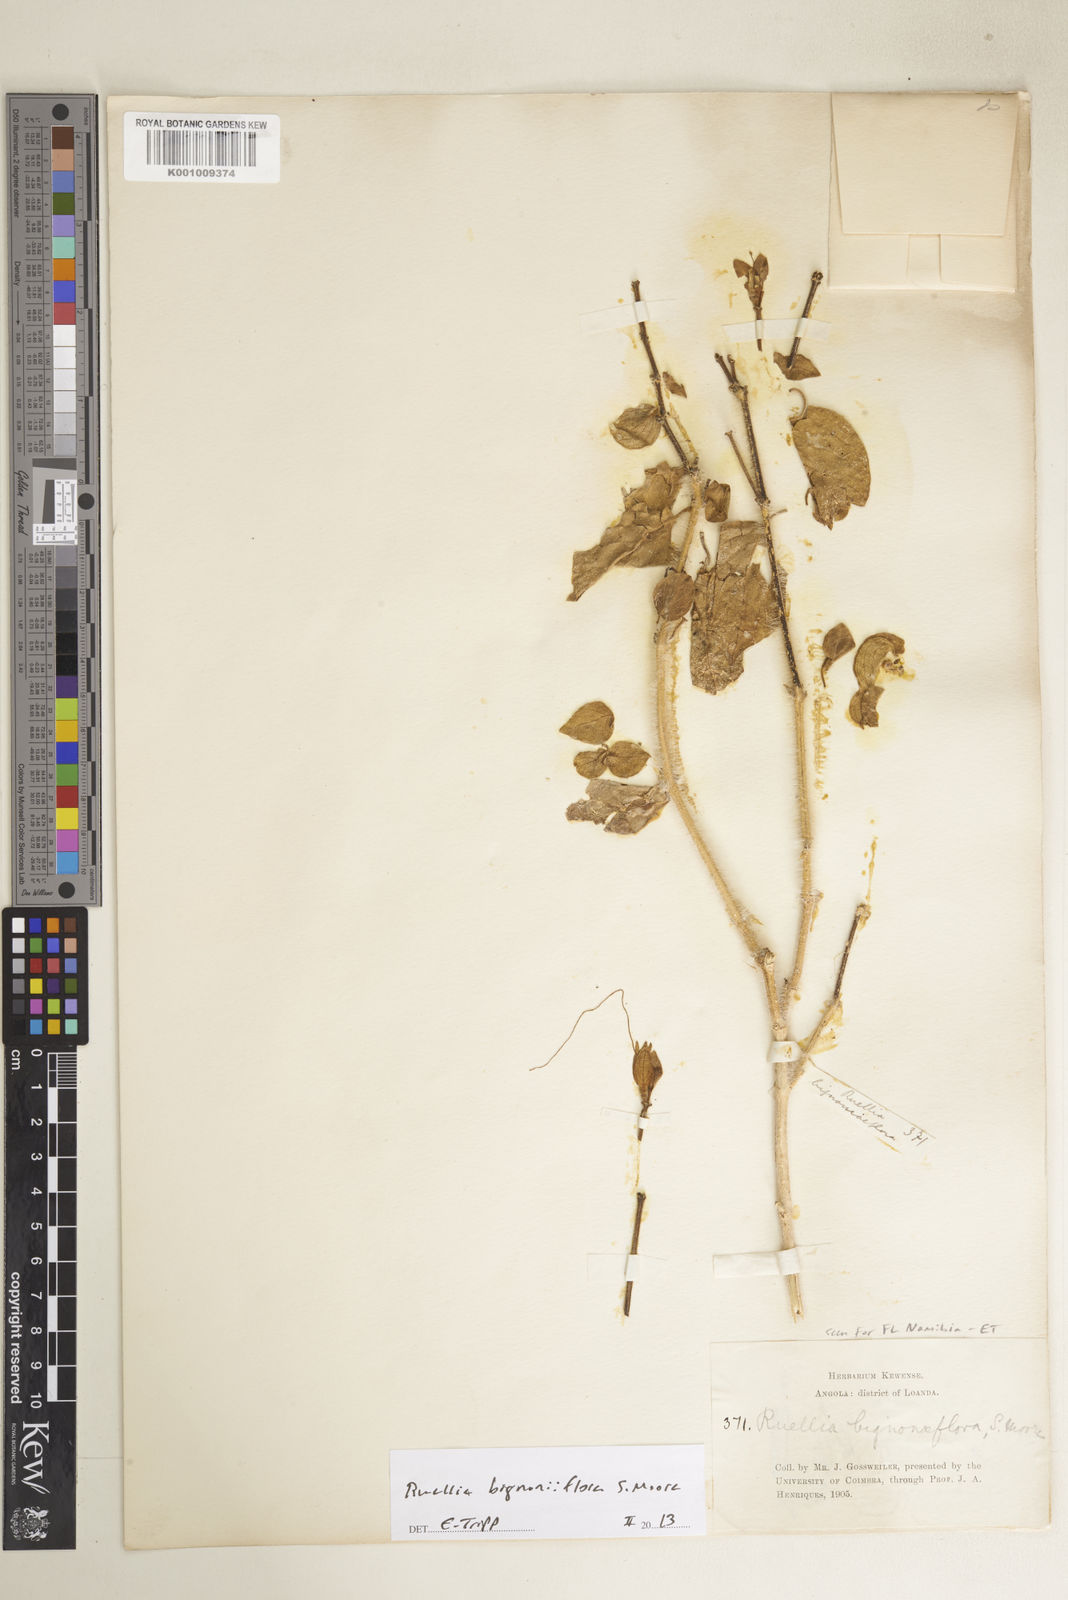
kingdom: Plantae
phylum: Tracheophyta
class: Magnoliopsida
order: Lamiales
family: Acanthaceae
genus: Ruellia
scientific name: Ruellia bignoniiflora
